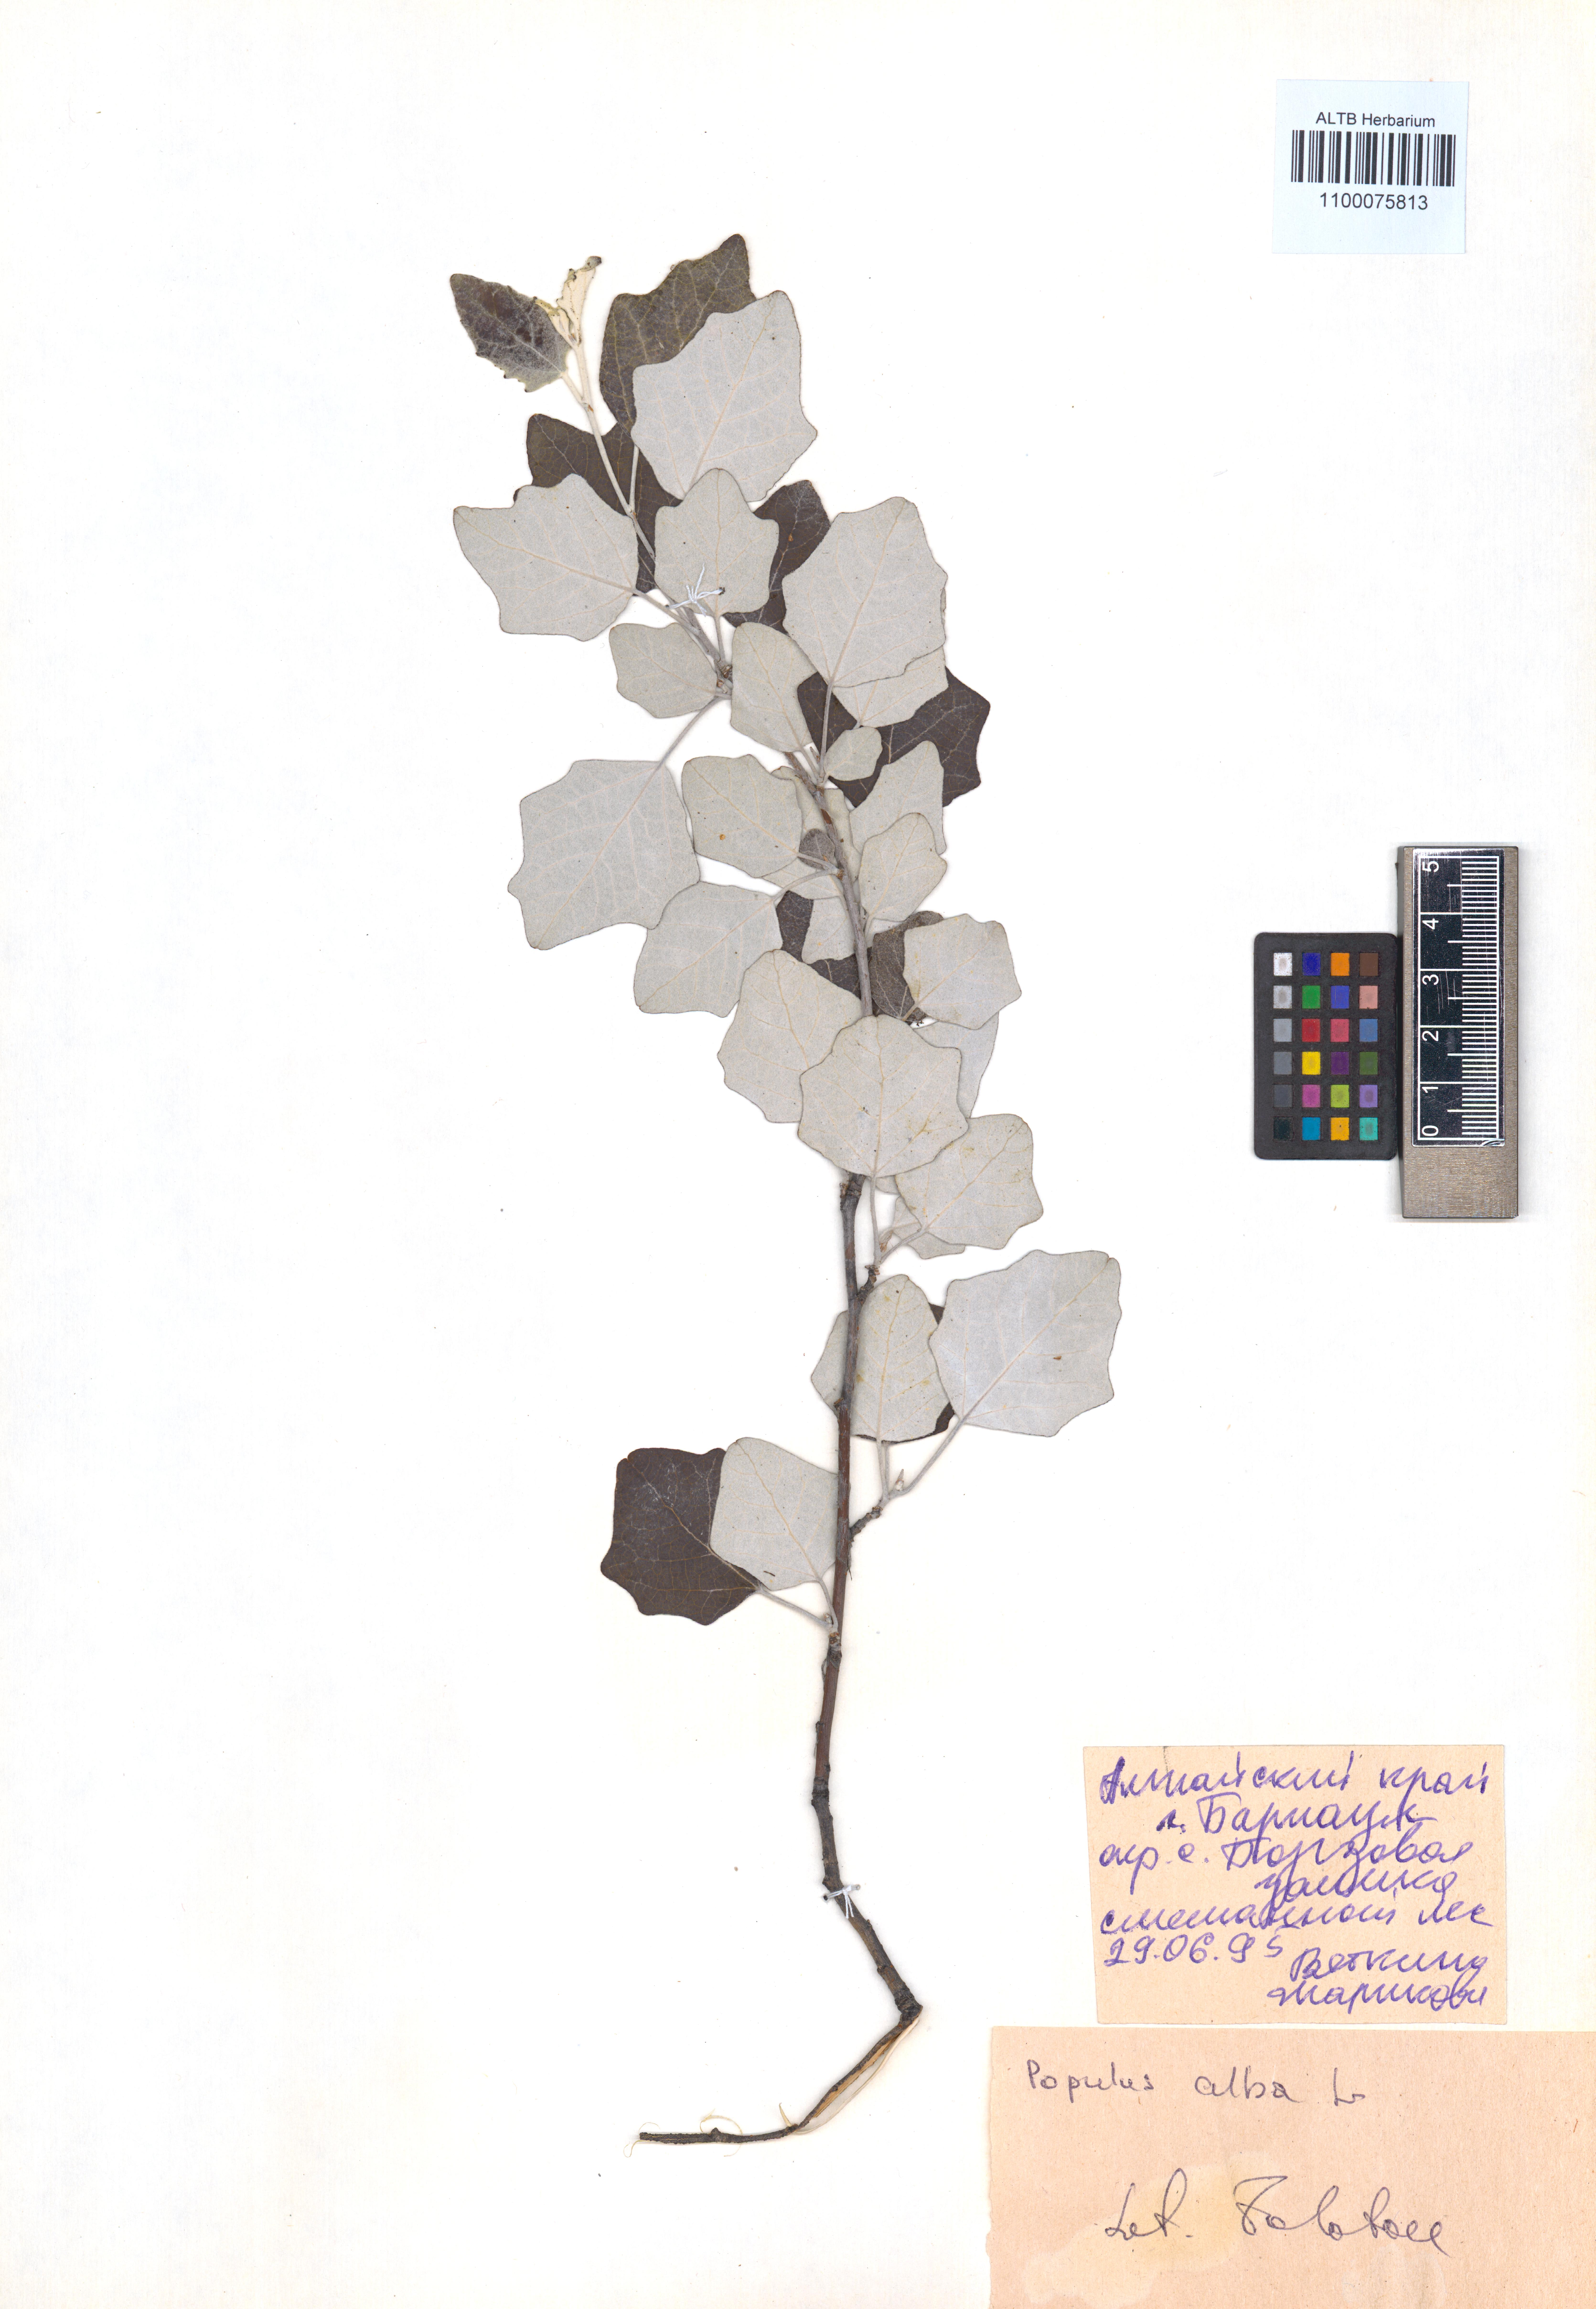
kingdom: Plantae
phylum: Tracheophyta
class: Magnoliopsida
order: Malpighiales
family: Salicaceae
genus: Populus
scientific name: Populus alba
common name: White poplar
